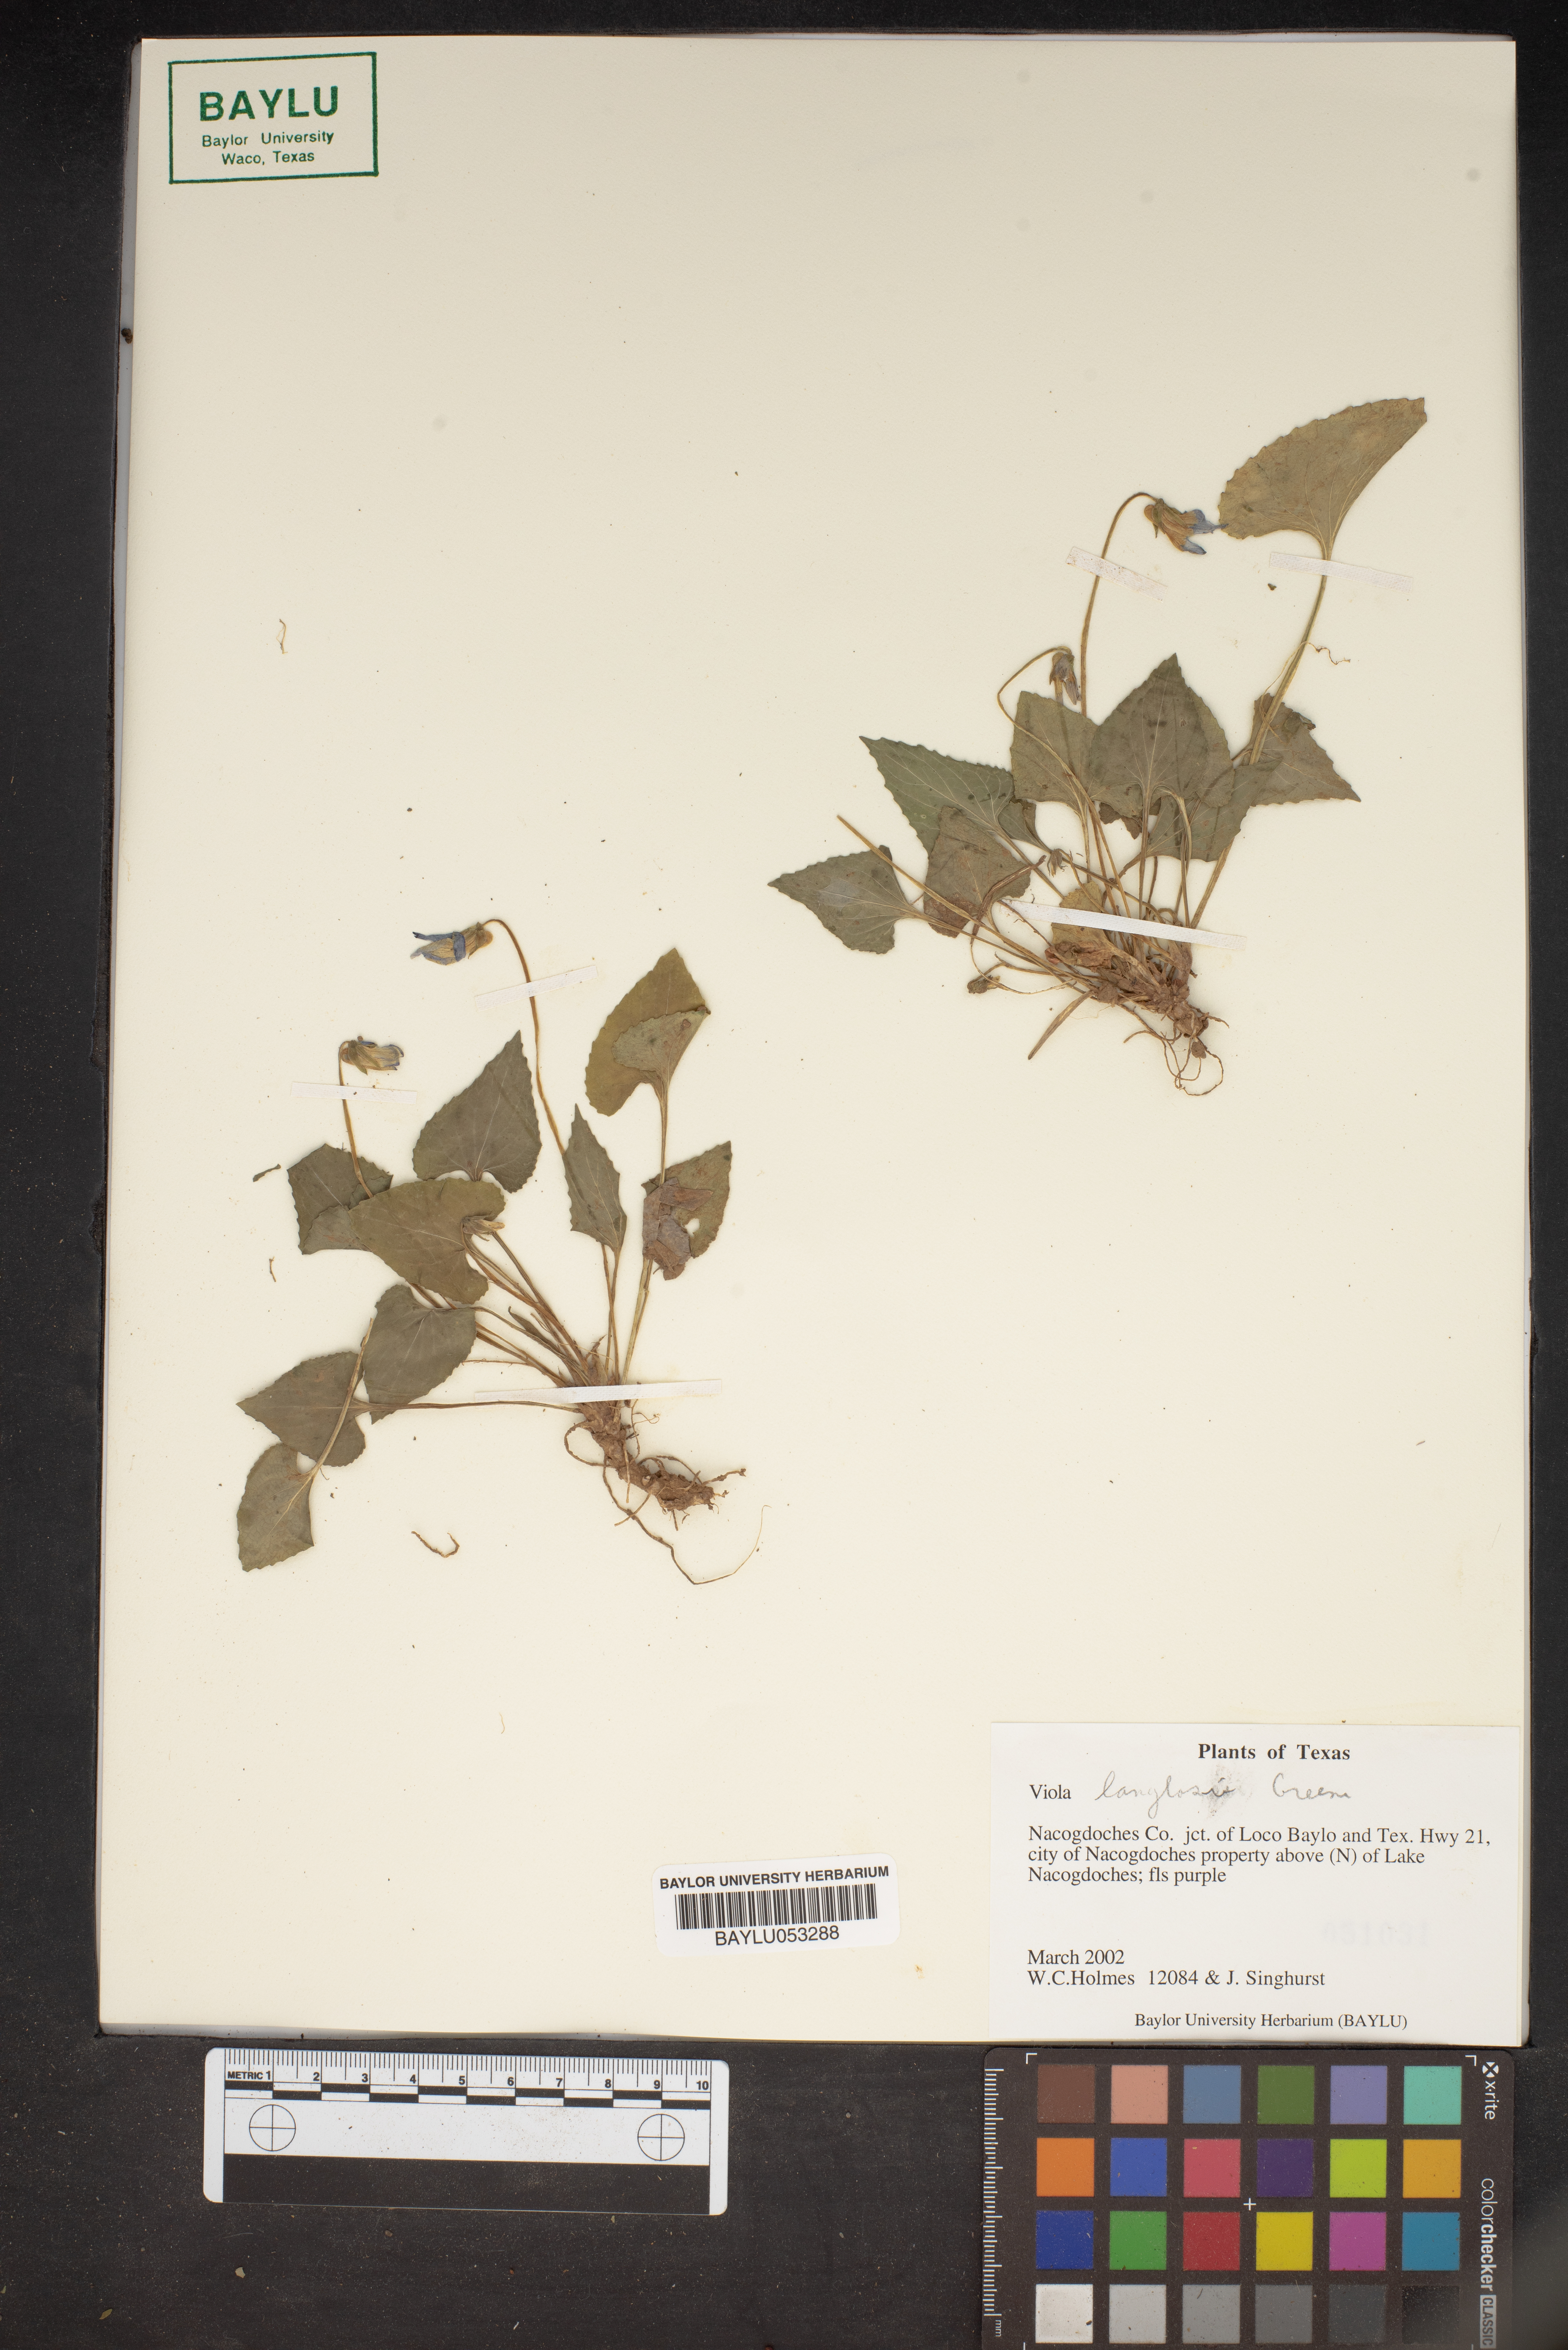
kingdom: Plantae
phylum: Tracheophyta
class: Magnoliopsida
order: Malpighiales
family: Violaceae
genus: Viola
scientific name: Viola langloisii
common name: Langlois' violet
